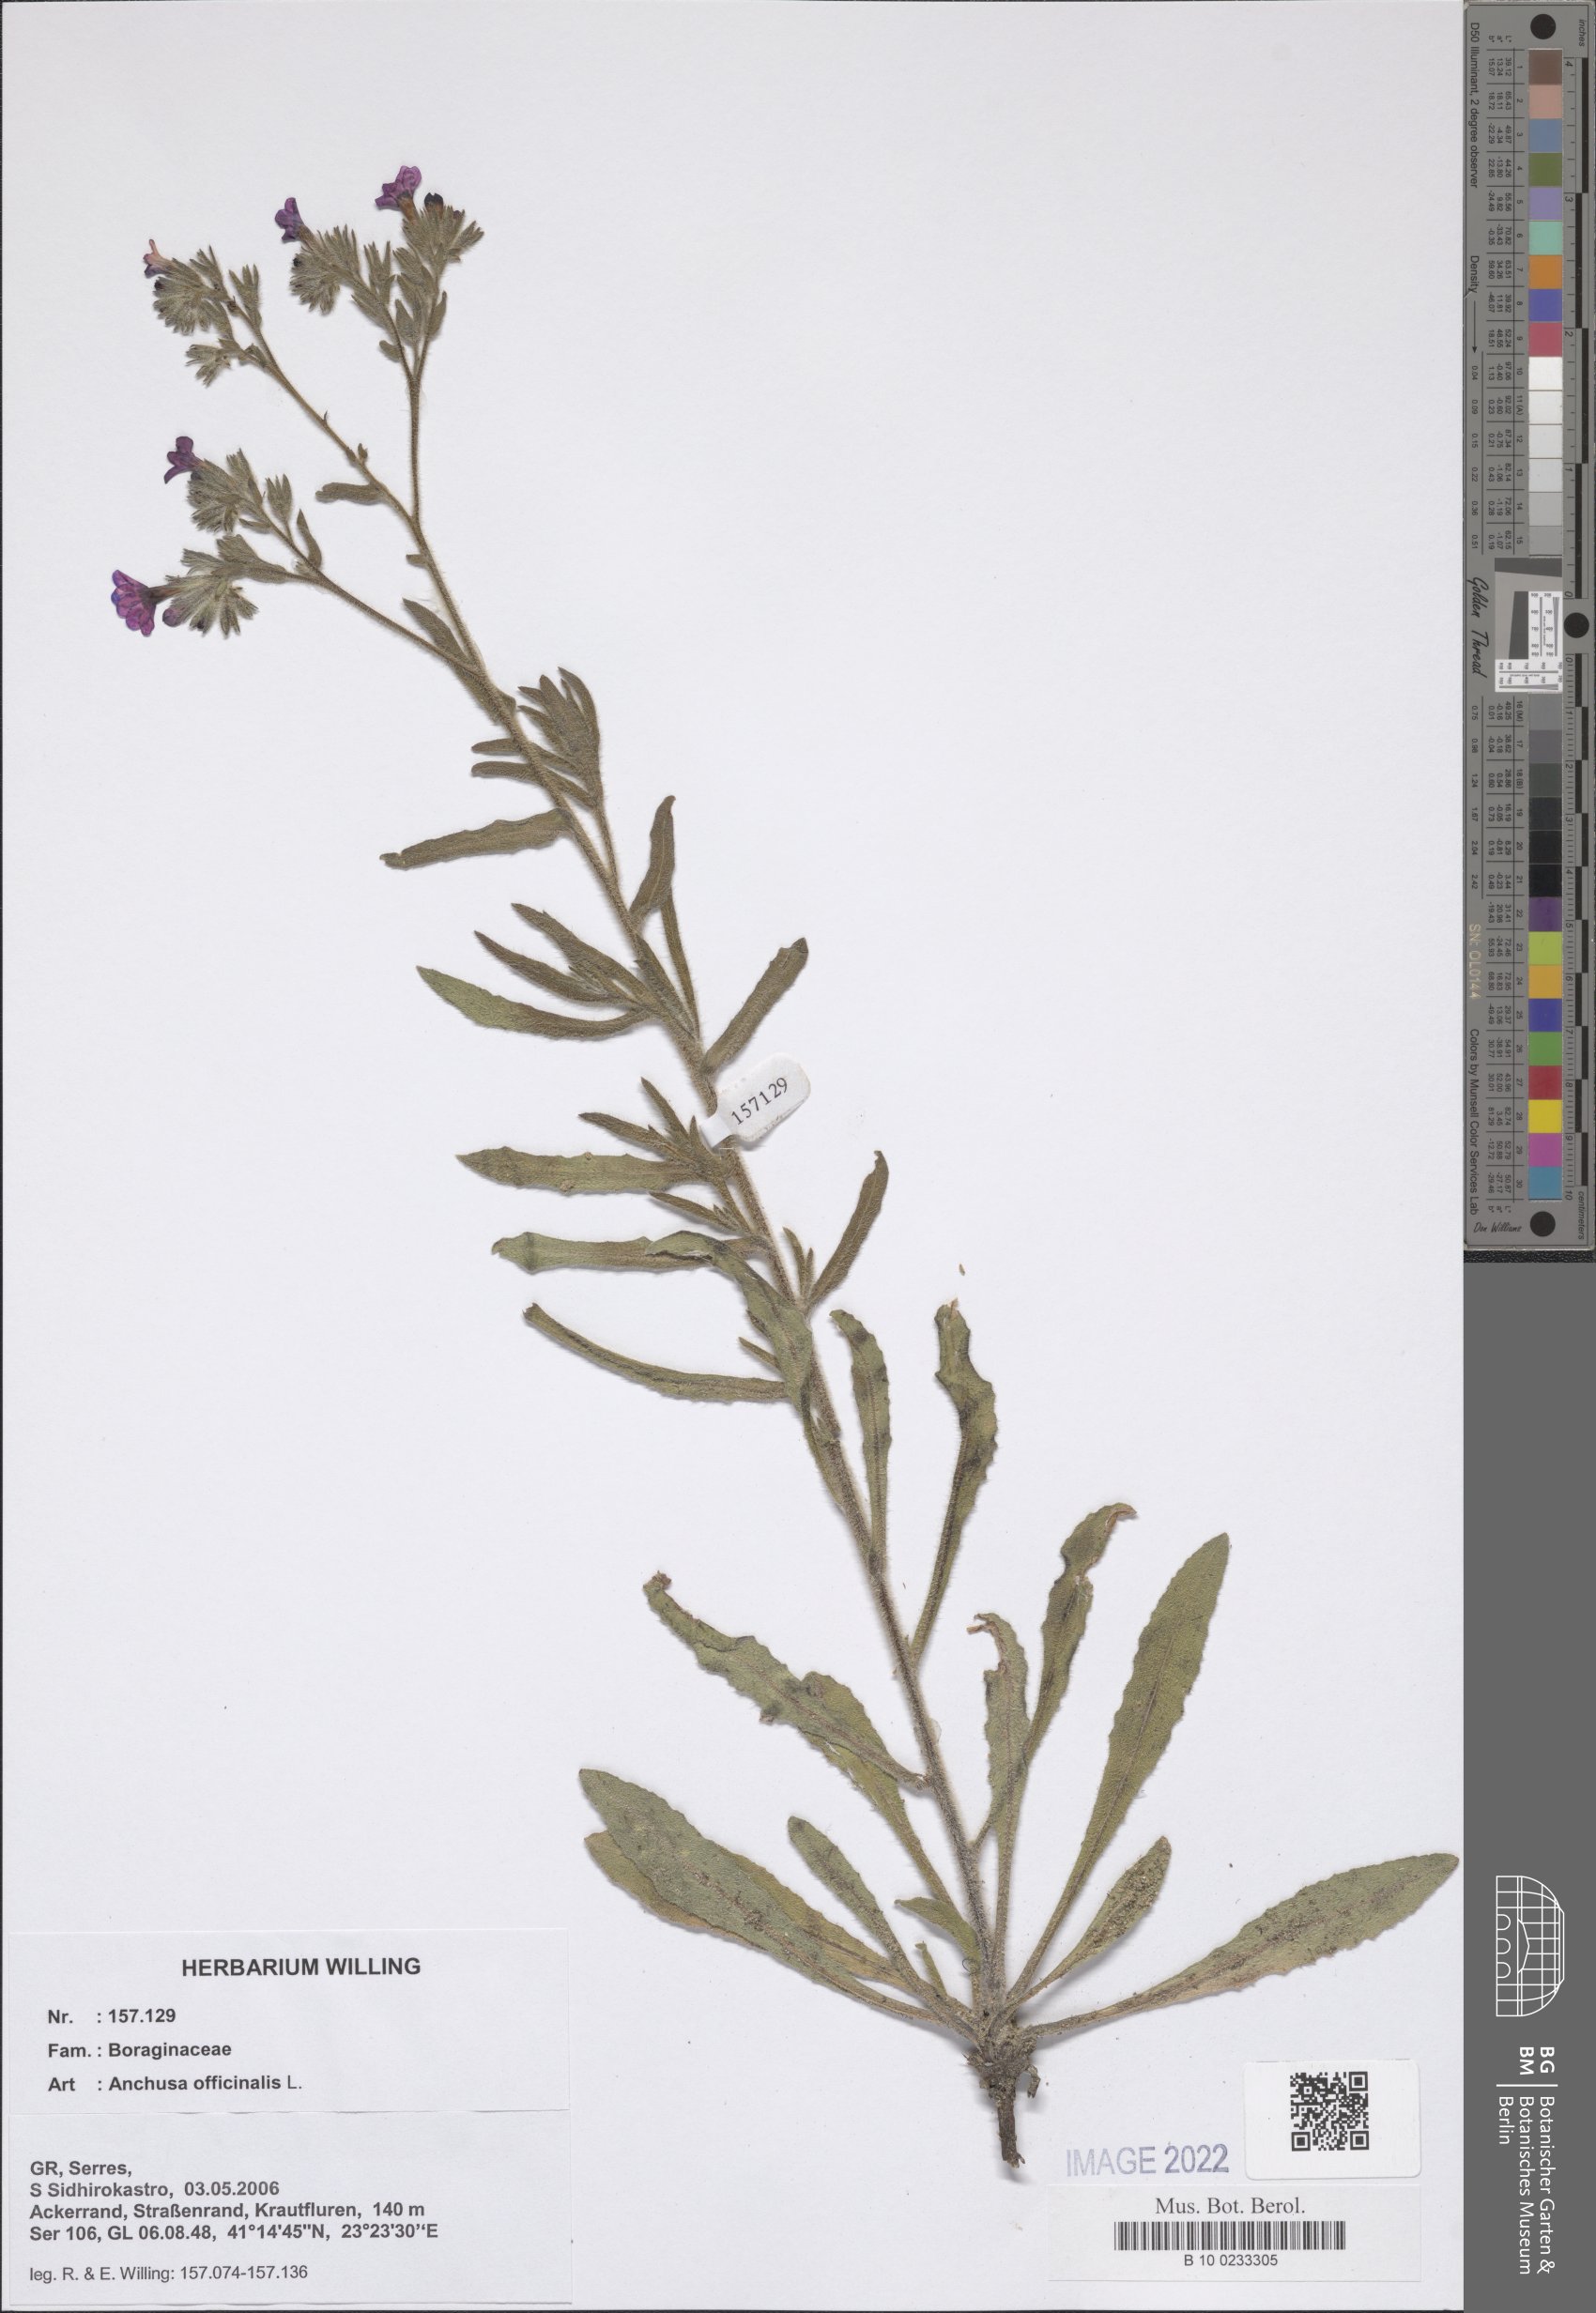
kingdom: Plantae
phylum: Tracheophyta
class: Magnoliopsida
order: Boraginales
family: Boraginaceae
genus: Anchusa
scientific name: Anchusa officinalis
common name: Alkanet
